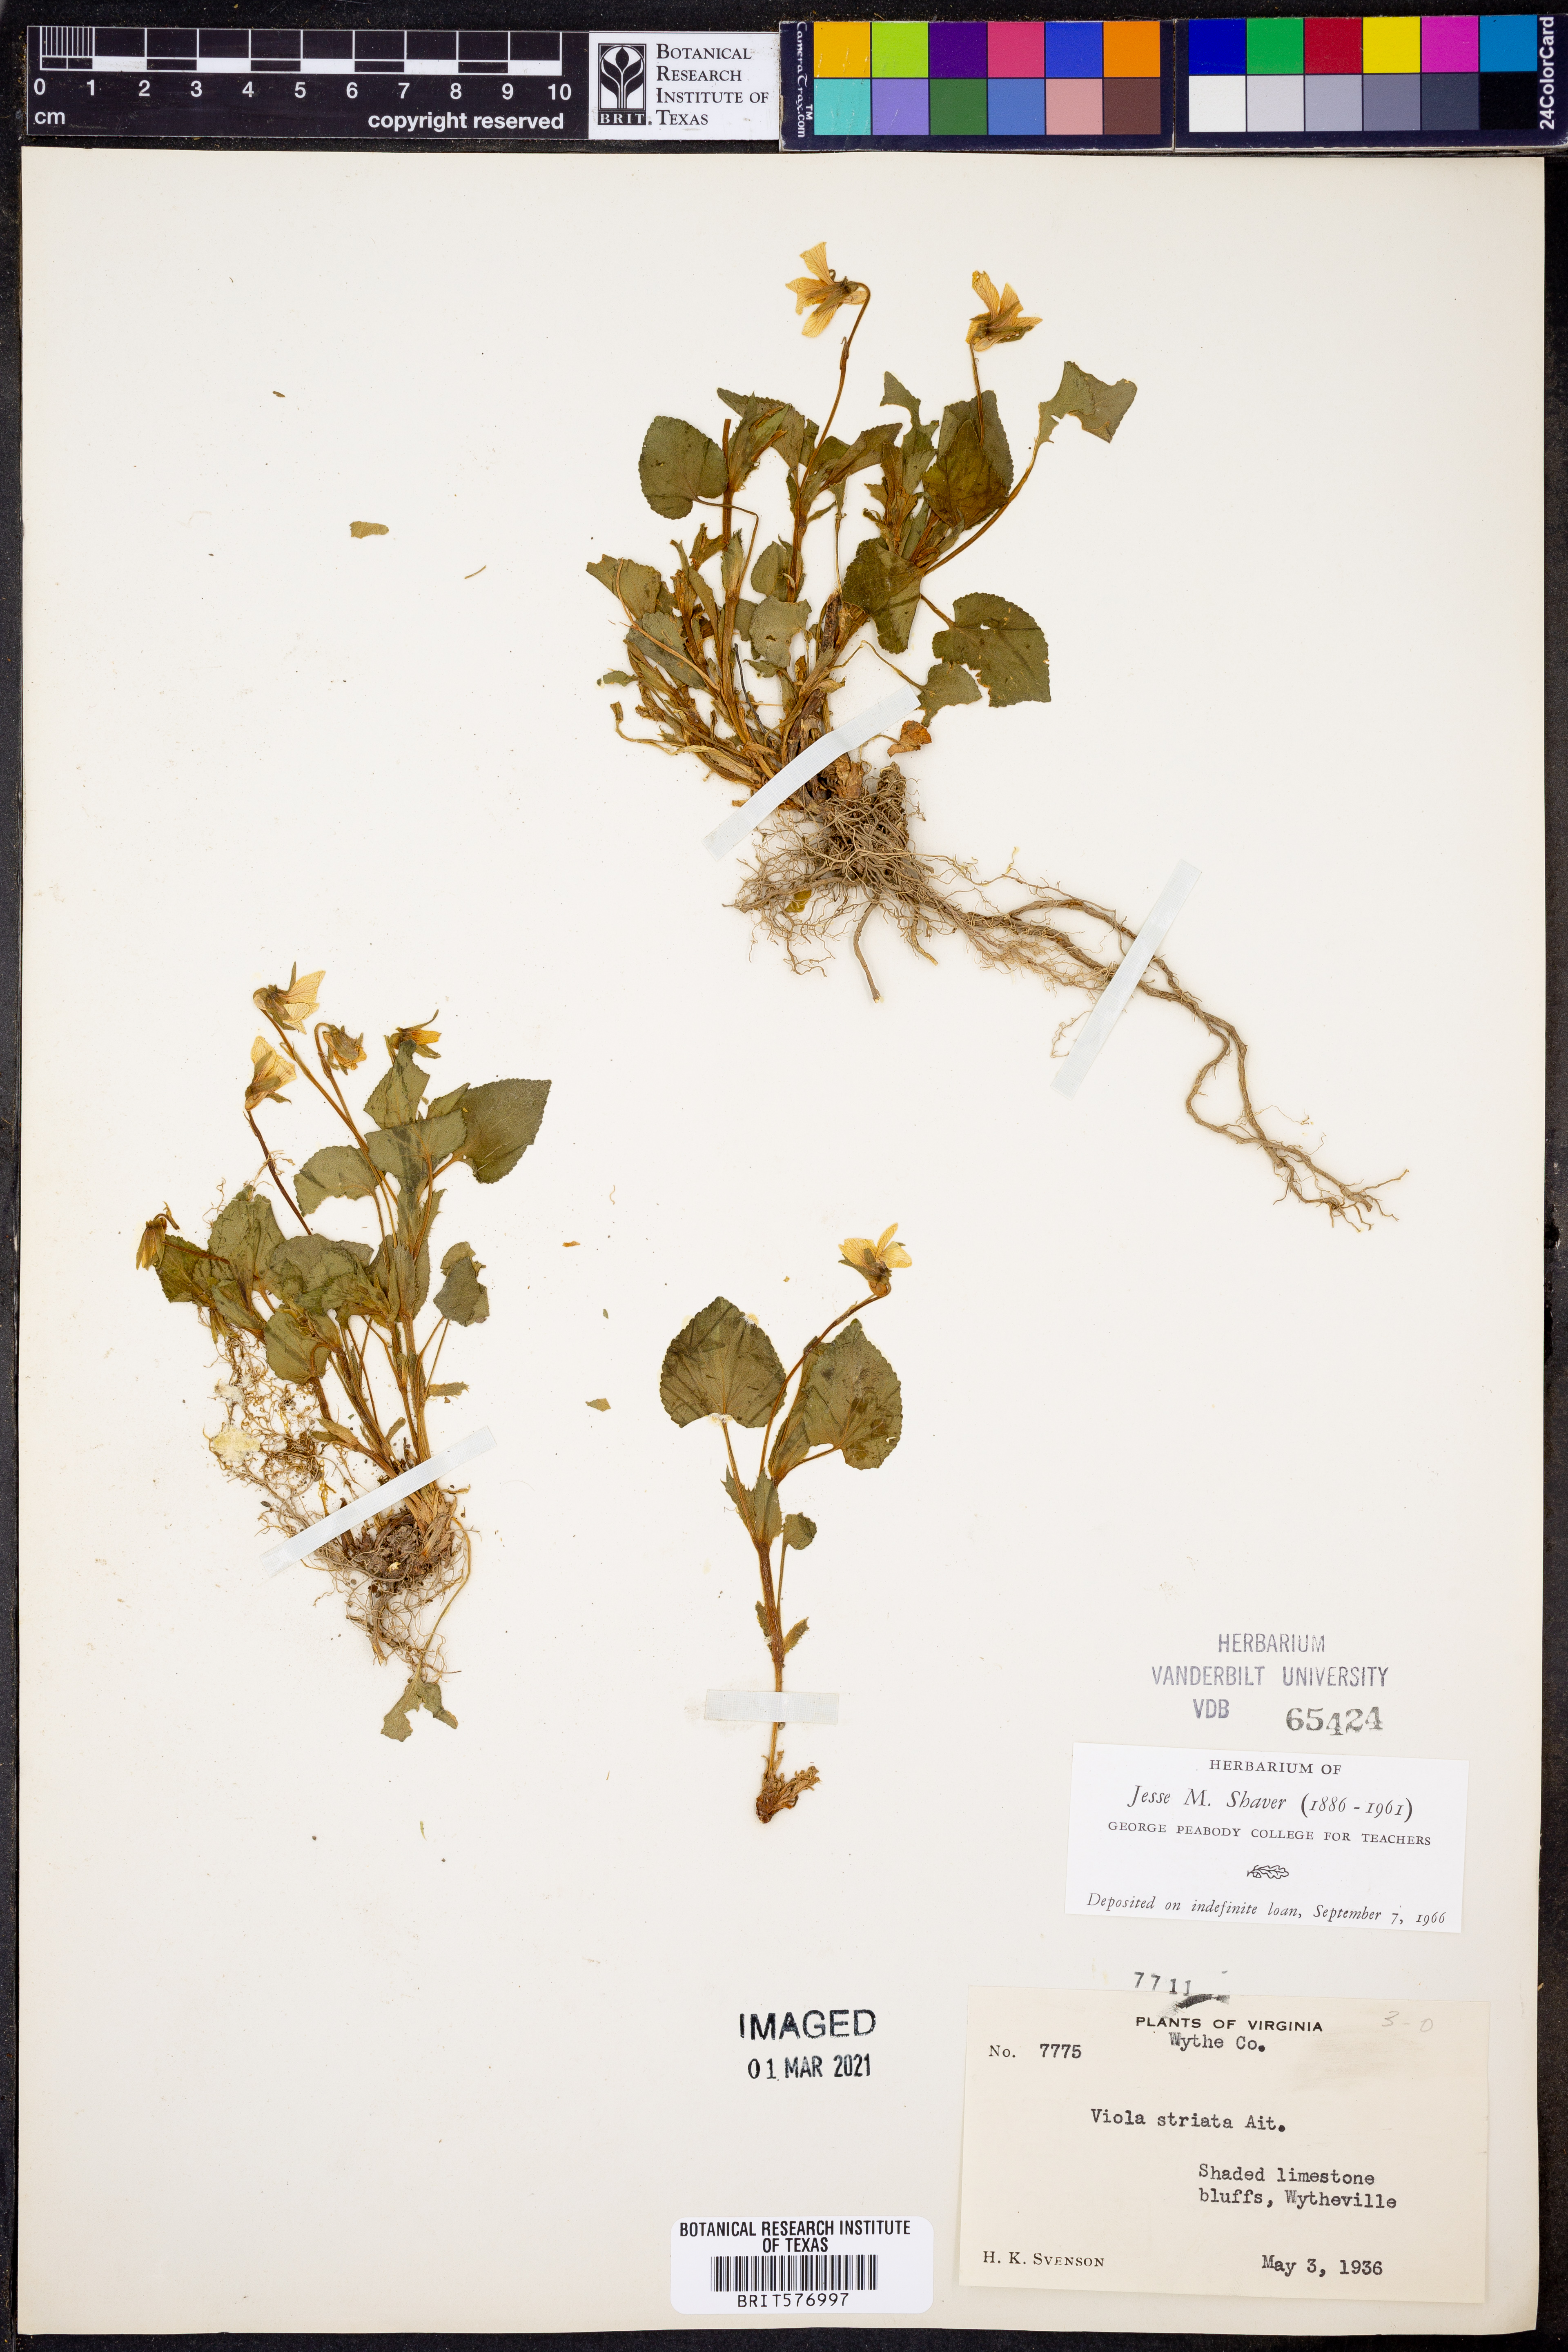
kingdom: Plantae
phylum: Tracheophyta
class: Magnoliopsida
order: Malpighiales
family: Violaceae
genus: Viola
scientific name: Viola striata
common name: Cream violet
